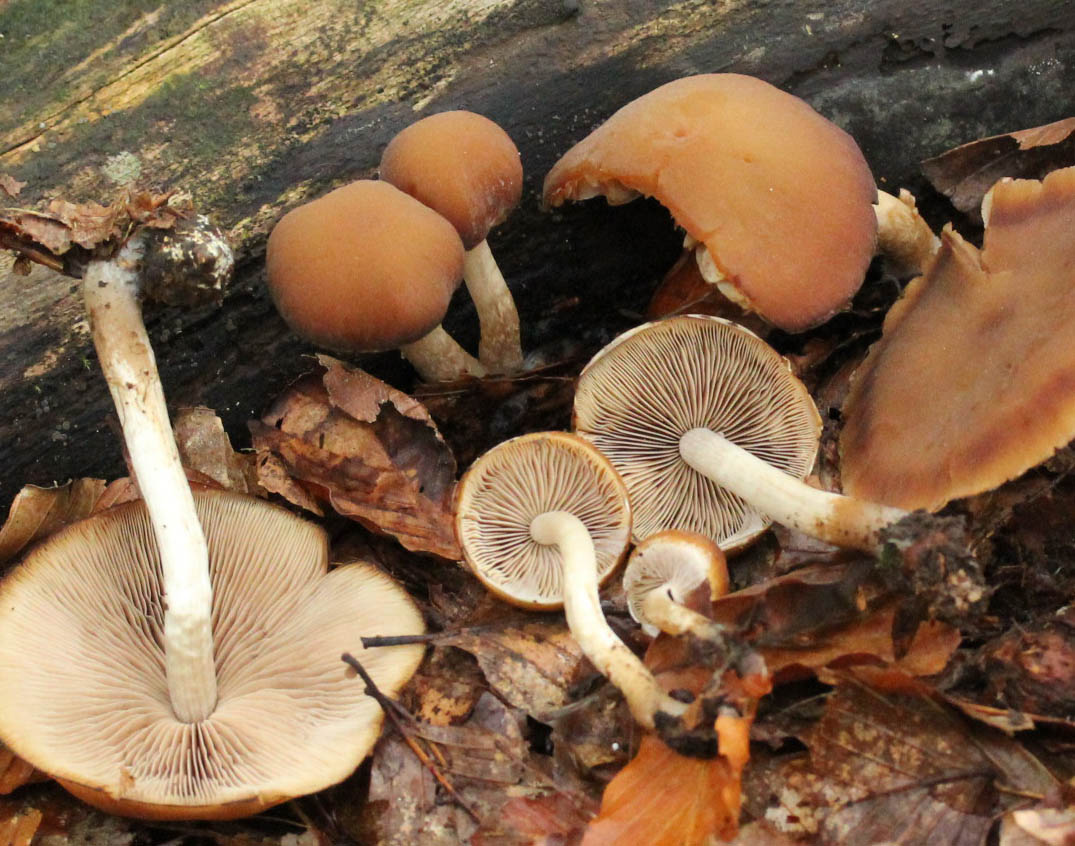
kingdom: Fungi
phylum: Basidiomycota
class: Agaricomycetes
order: Agaricales
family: Psathyrellaceae
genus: Psathyrella
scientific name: Psathyrella piluliformis
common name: lysstokket mørkhat
